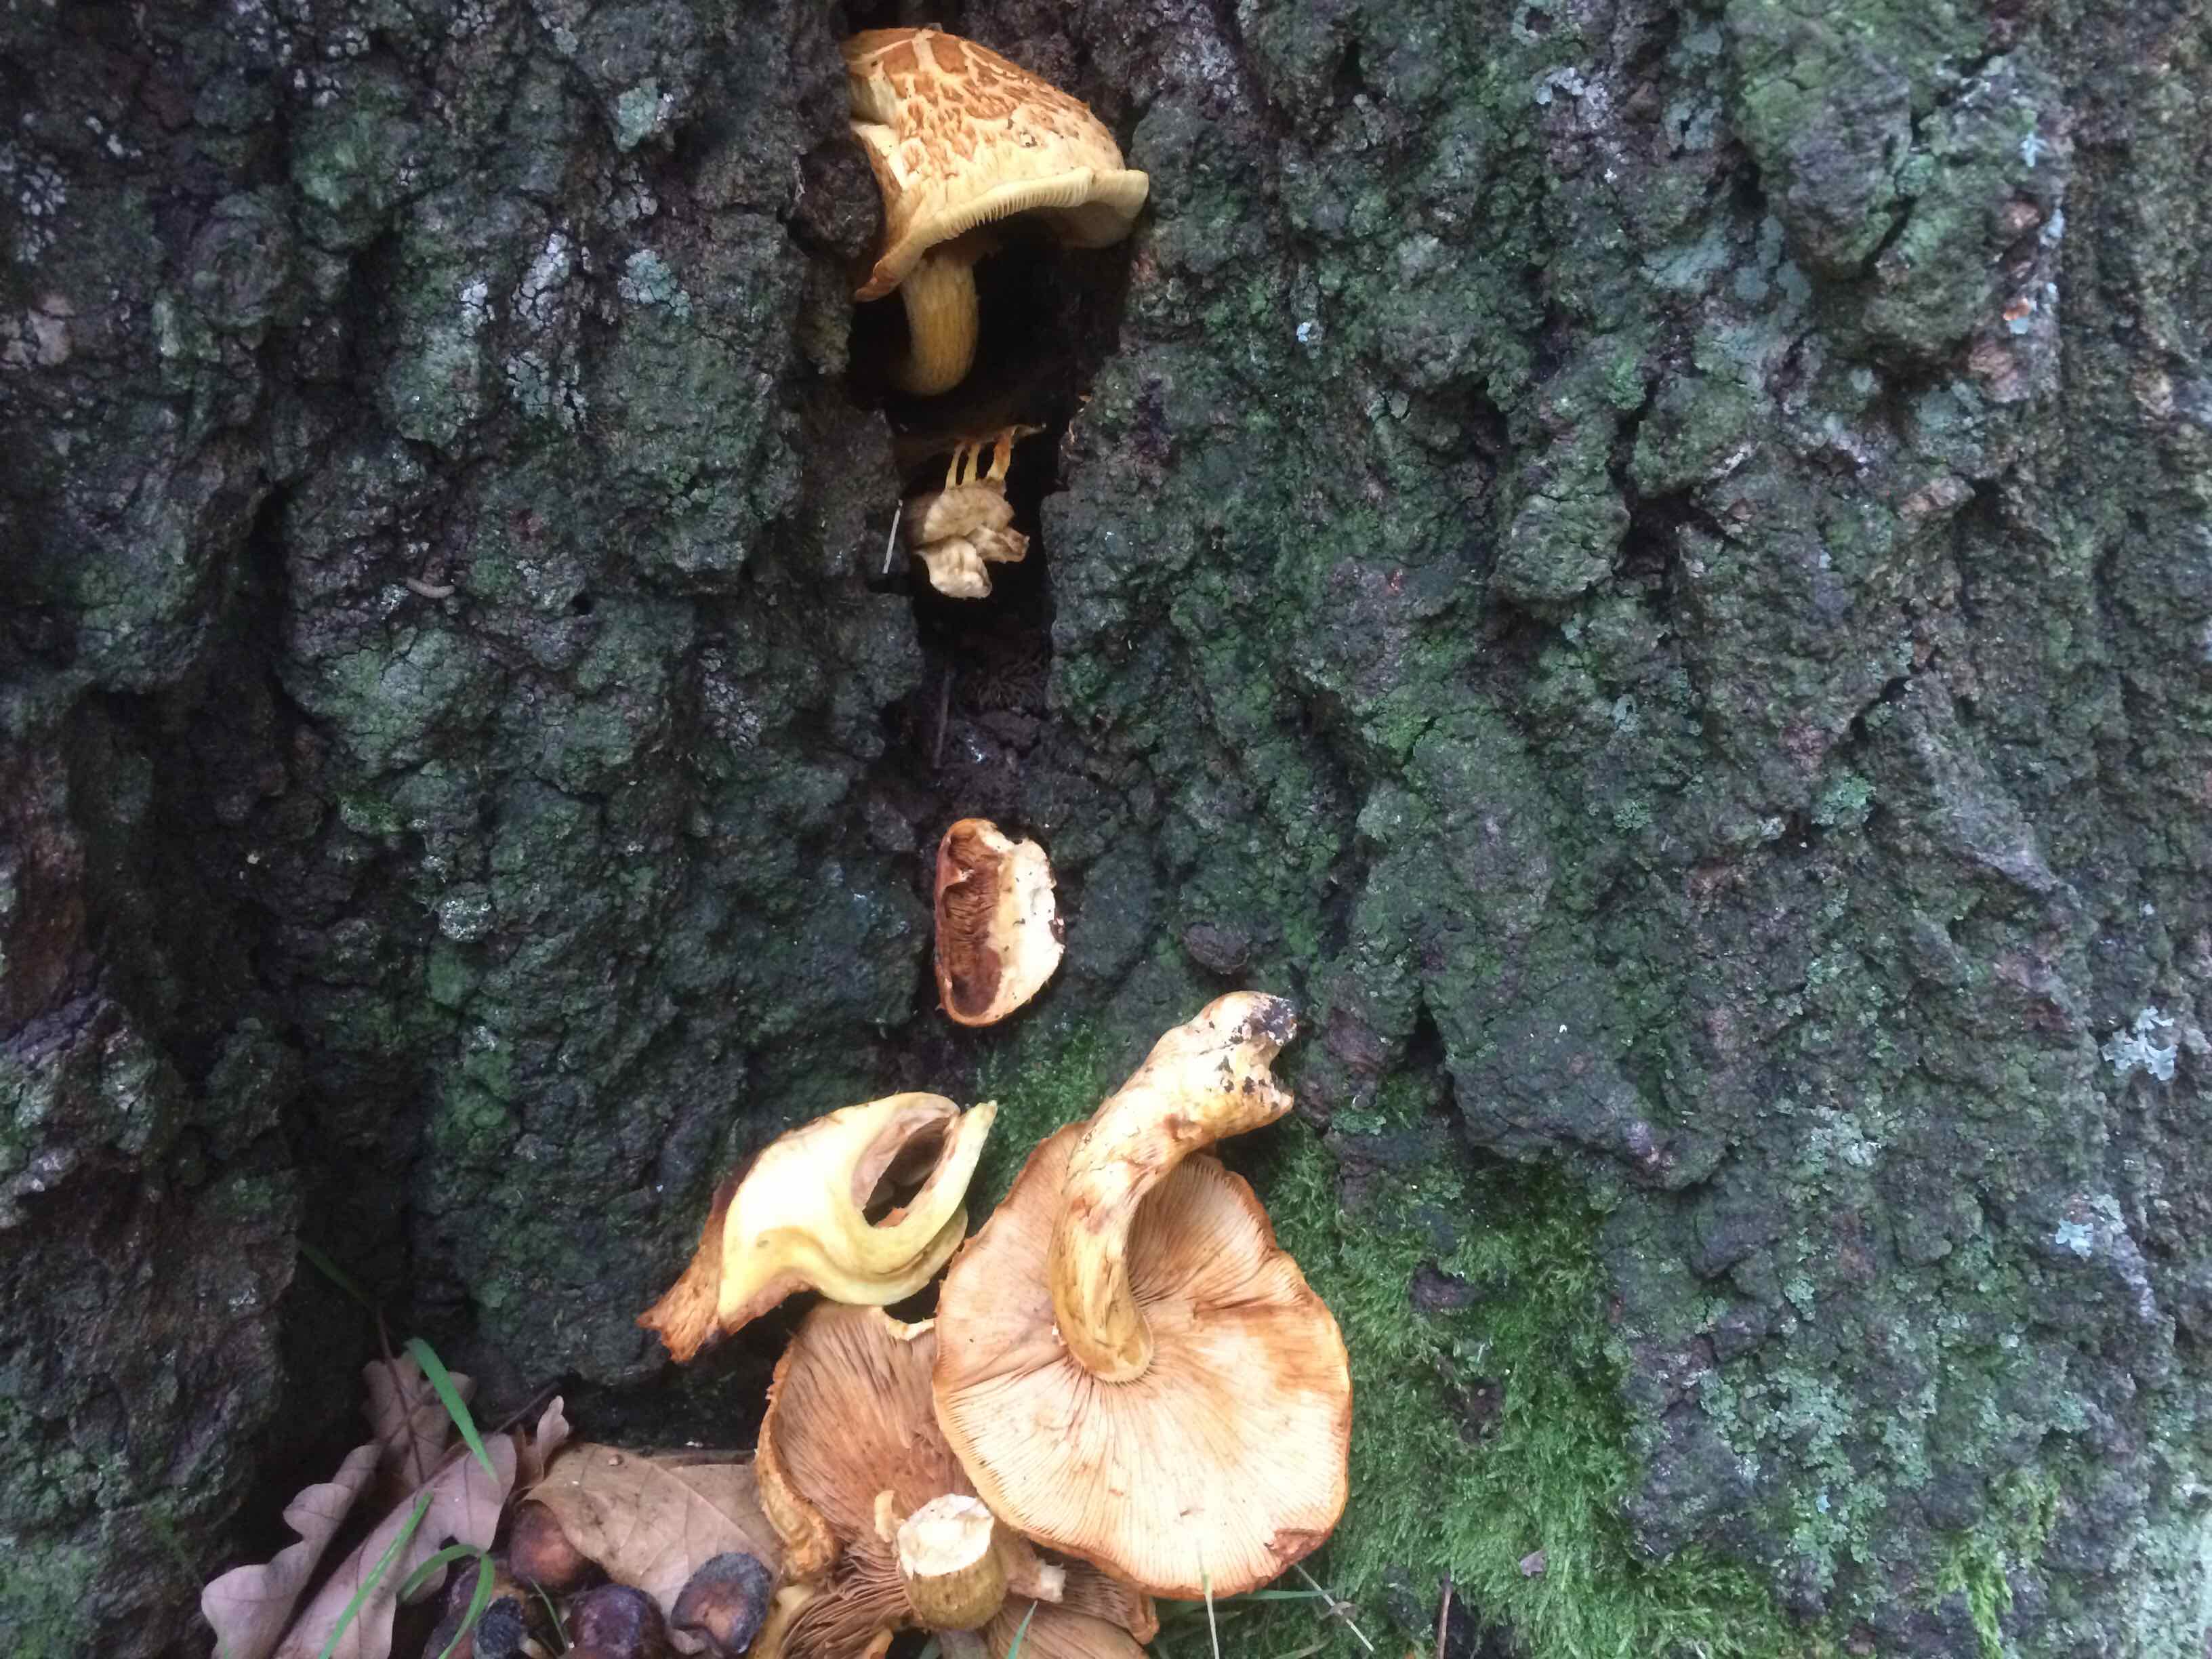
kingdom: Fungi
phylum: Basidiomycota
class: Agaricomycetes
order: Agaricales
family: Hymenogastraceae
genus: Gymnopilus
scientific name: Gymnopilus spectabilis
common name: fibret flammehat
